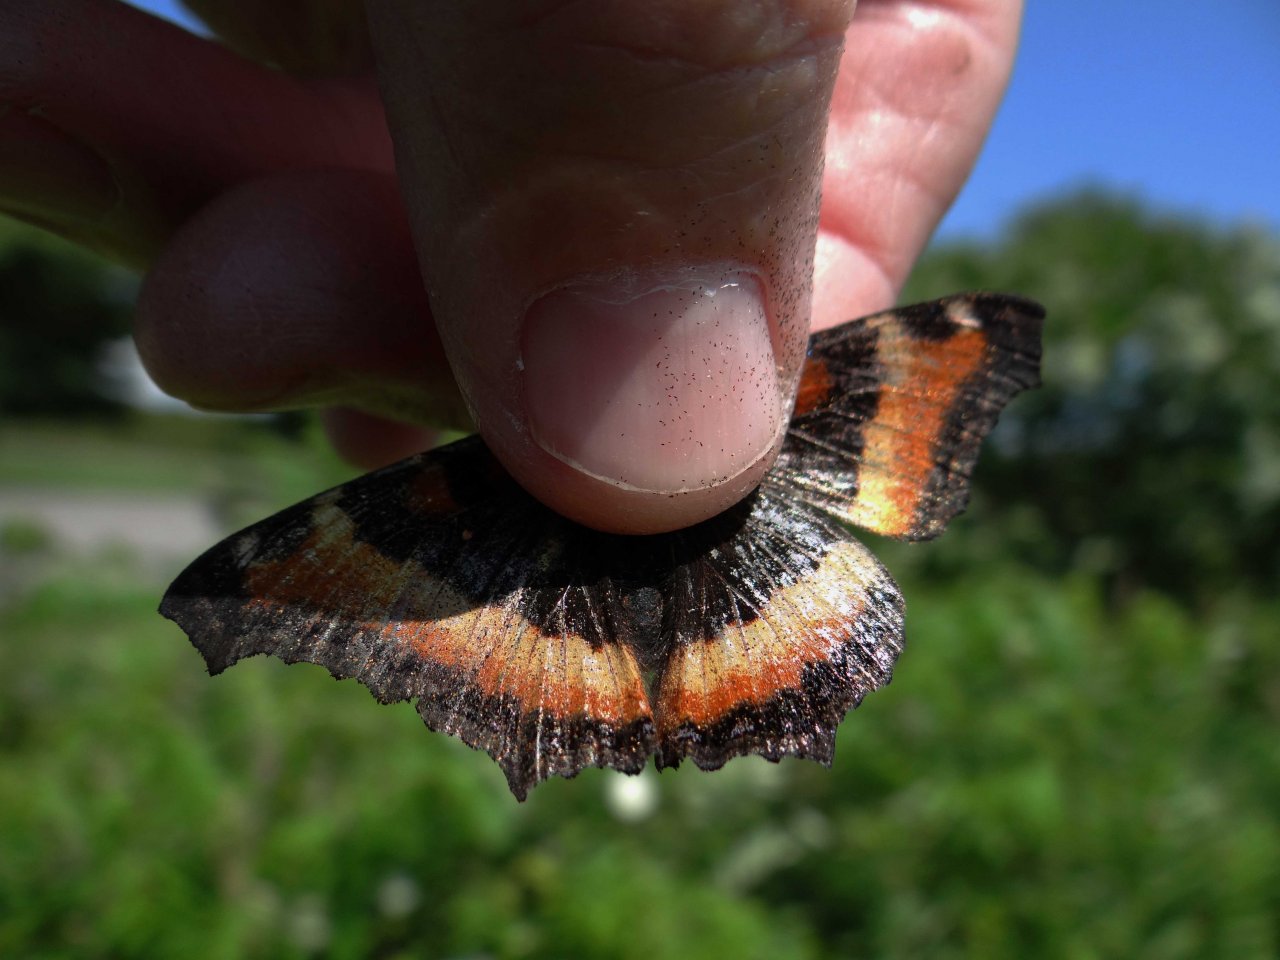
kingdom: Animalia
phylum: Arthropoda
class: Insecta
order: Lepidoptera
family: Nymphalidae
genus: Aglais
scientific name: Aglais milberti
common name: Milbert's Tortoiseshell
